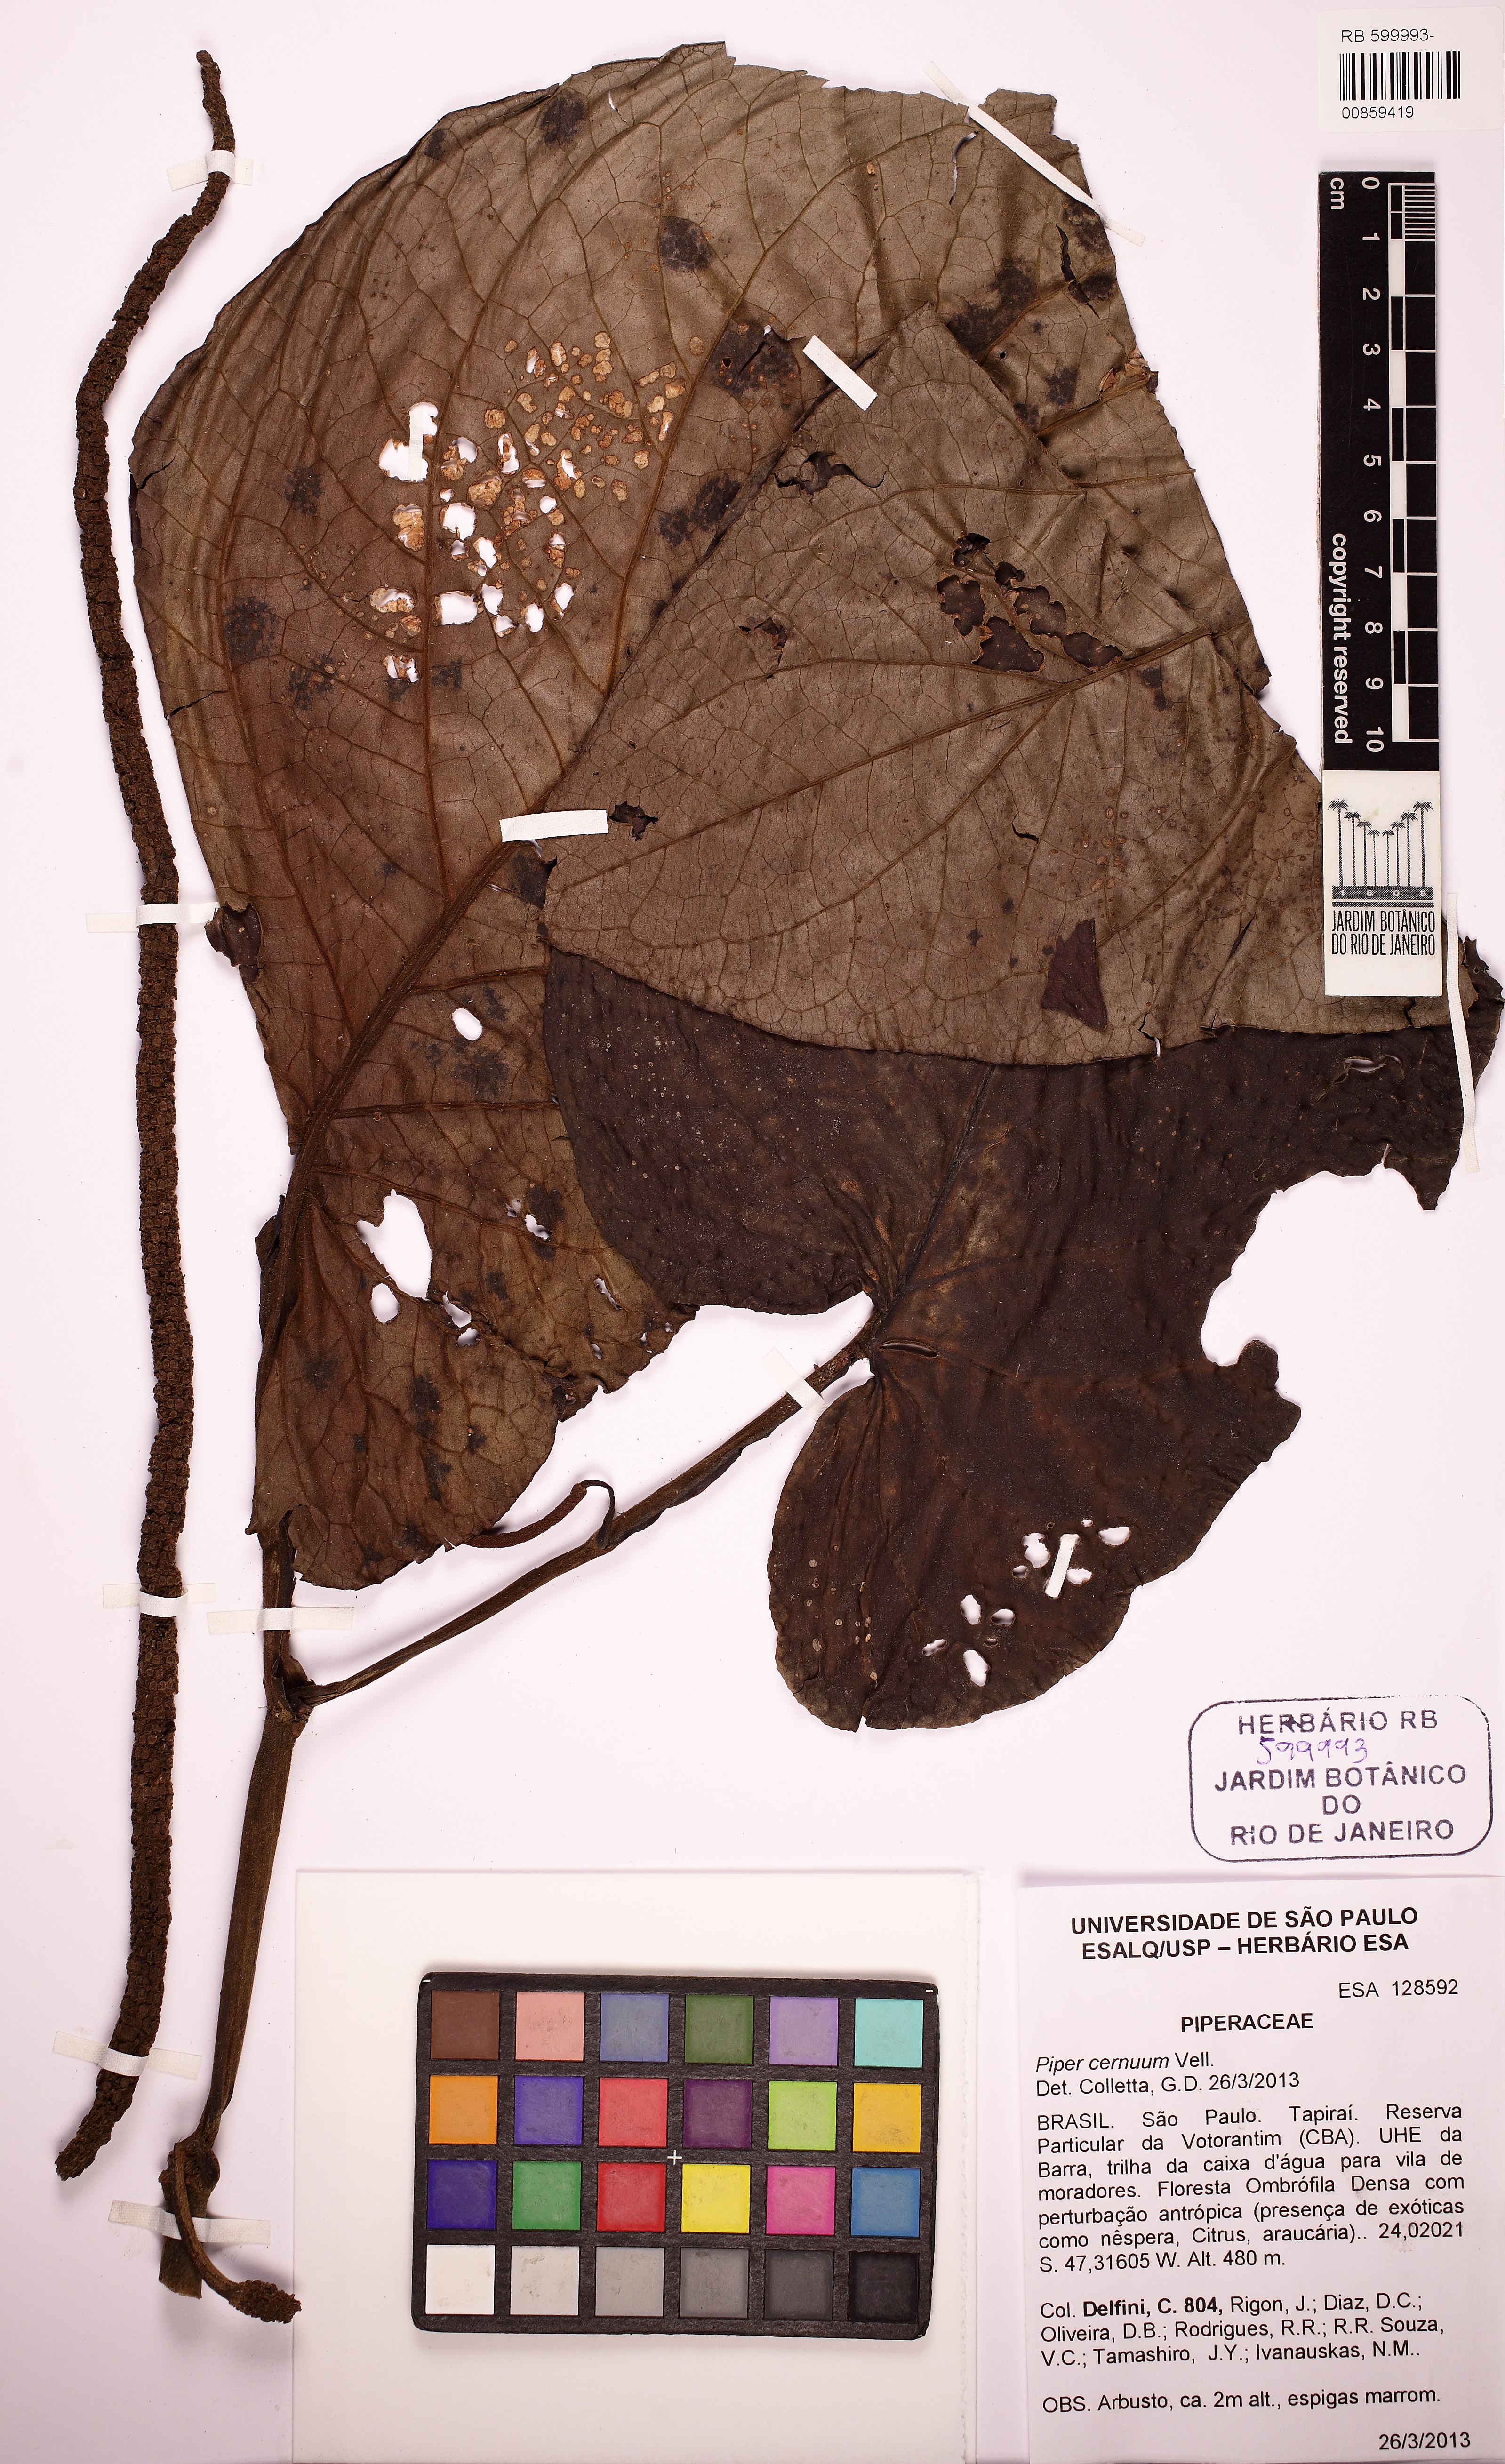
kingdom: Plantae
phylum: Tracheophyta
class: Magnoliopsida
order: Piperales
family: Piperaceae
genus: Piper
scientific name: Piper cernuum
